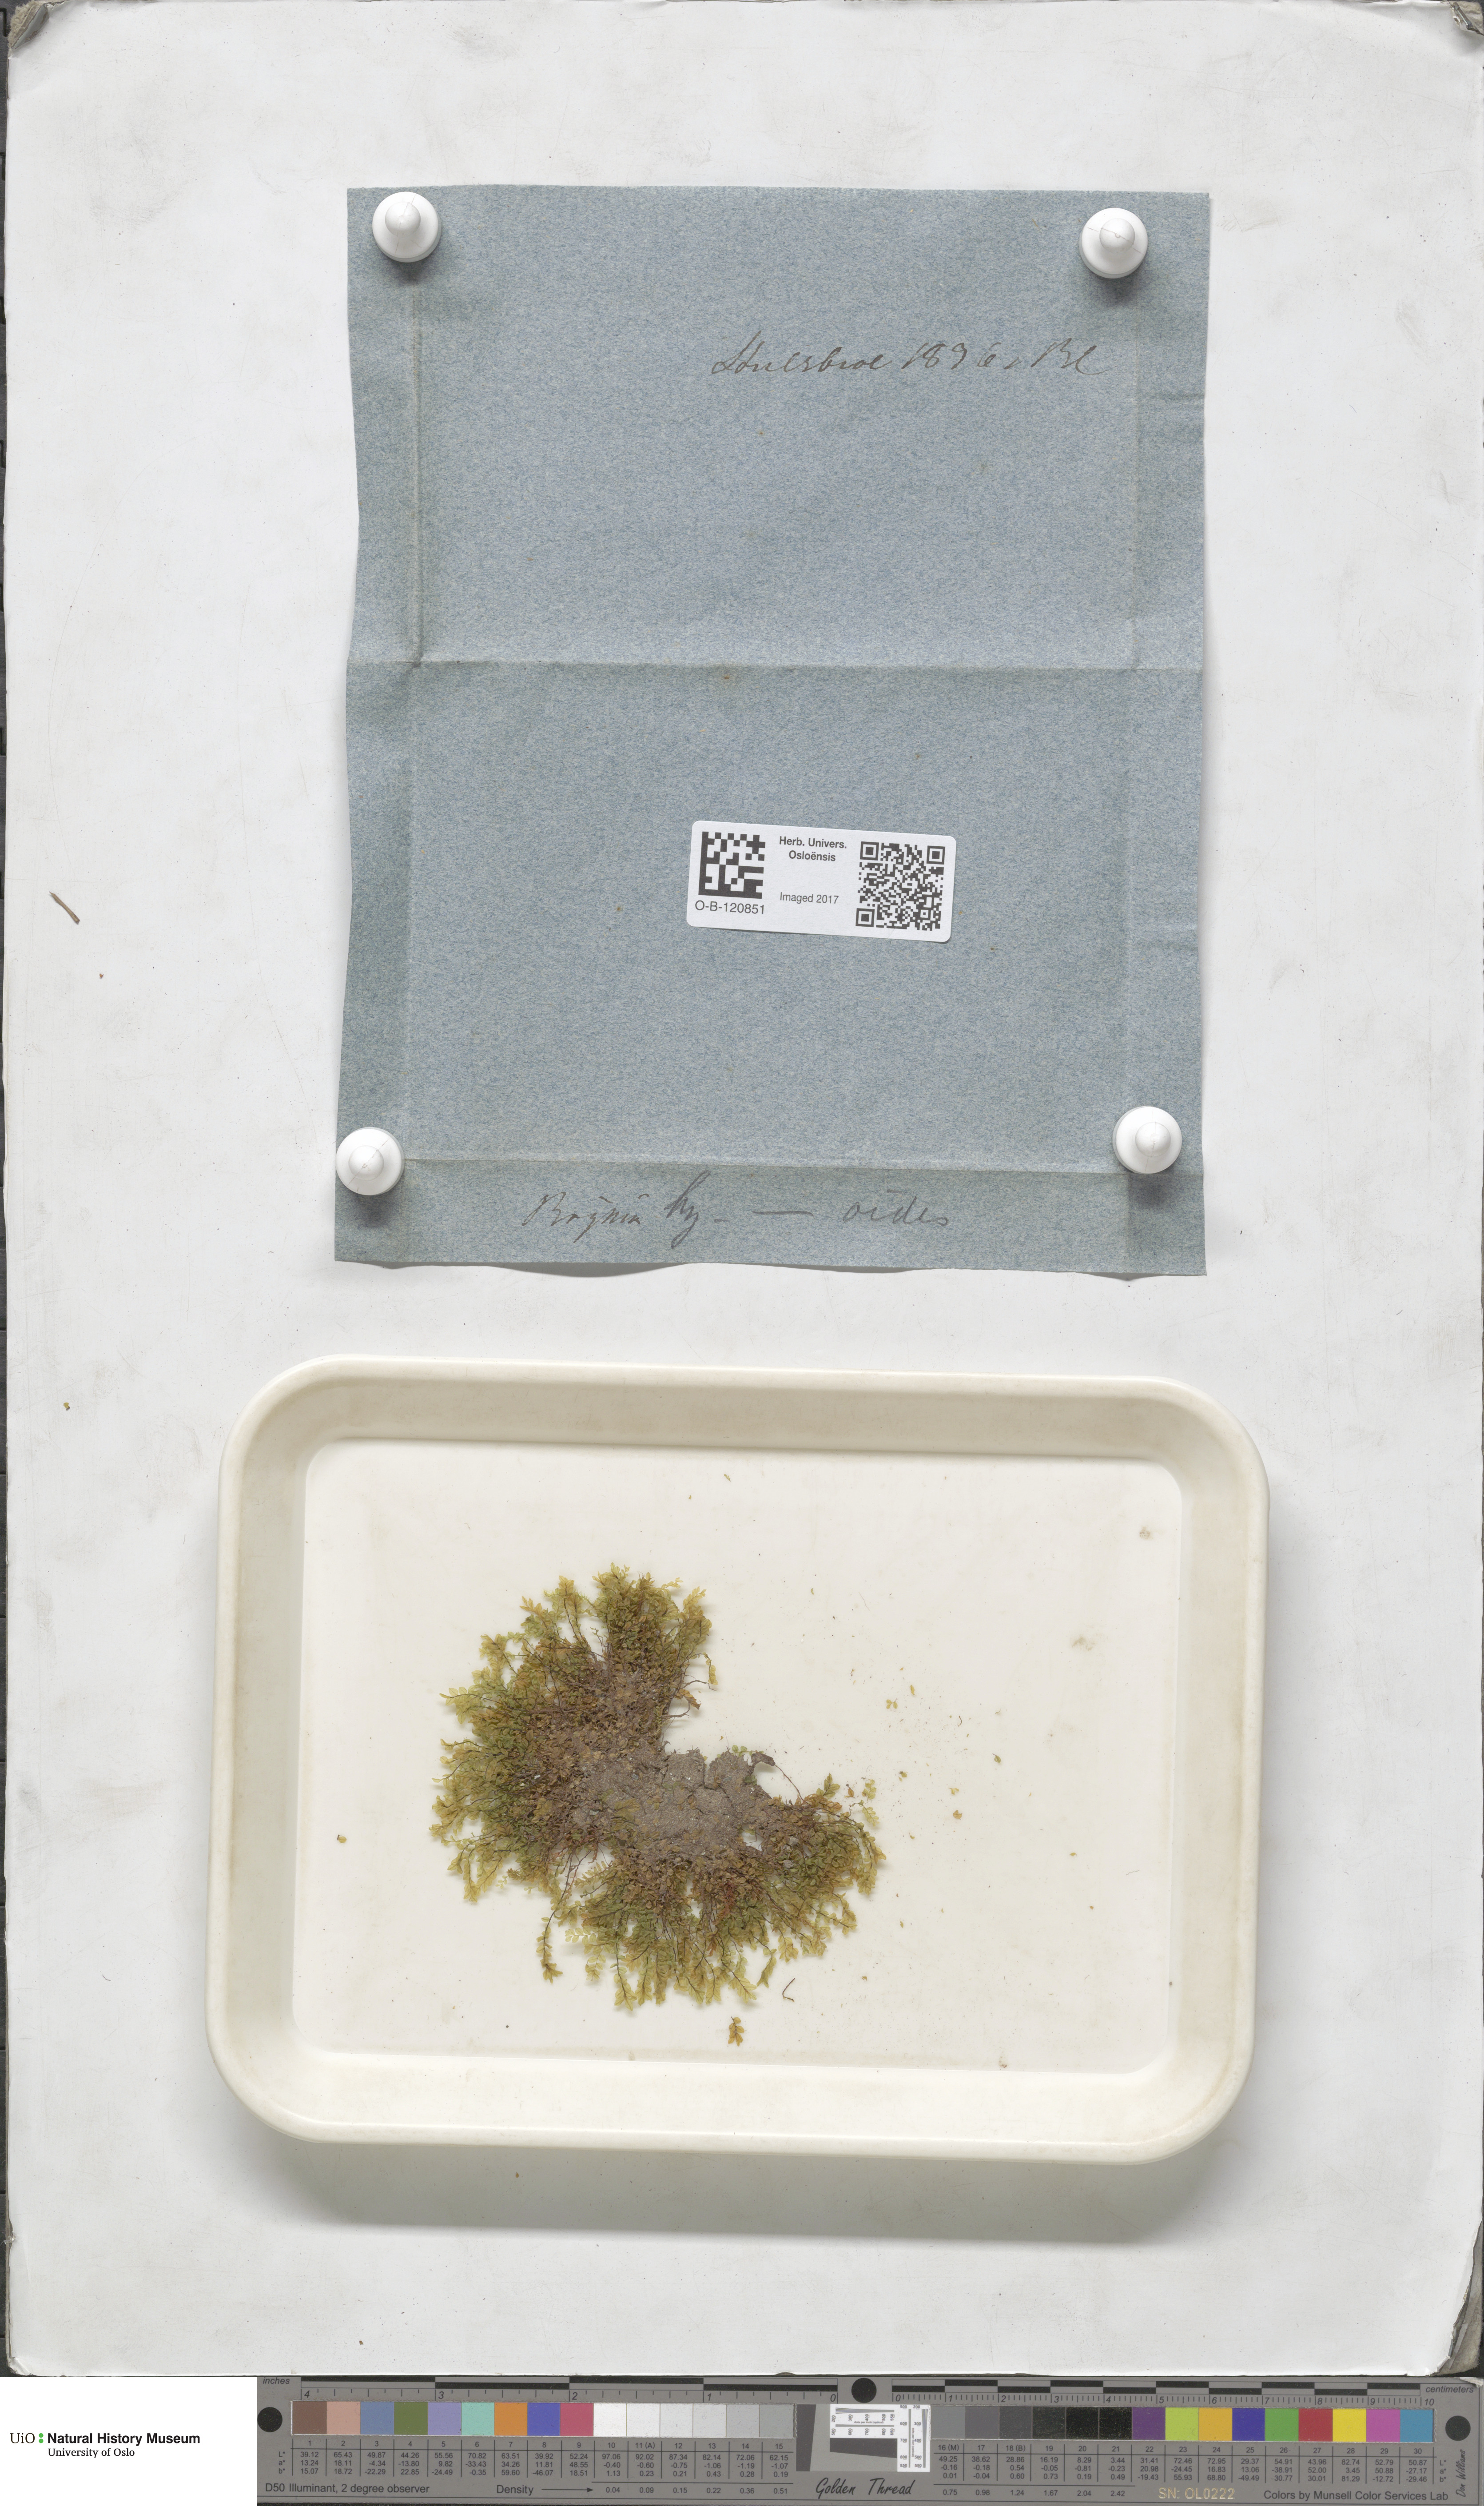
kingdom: Plantae
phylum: Bryophyta
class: Bryopsida
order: Bryales
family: Mniaceae
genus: Cyrtomnium
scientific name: Cyrtomnium hymenophylloides
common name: Short-pointed lantern moss
